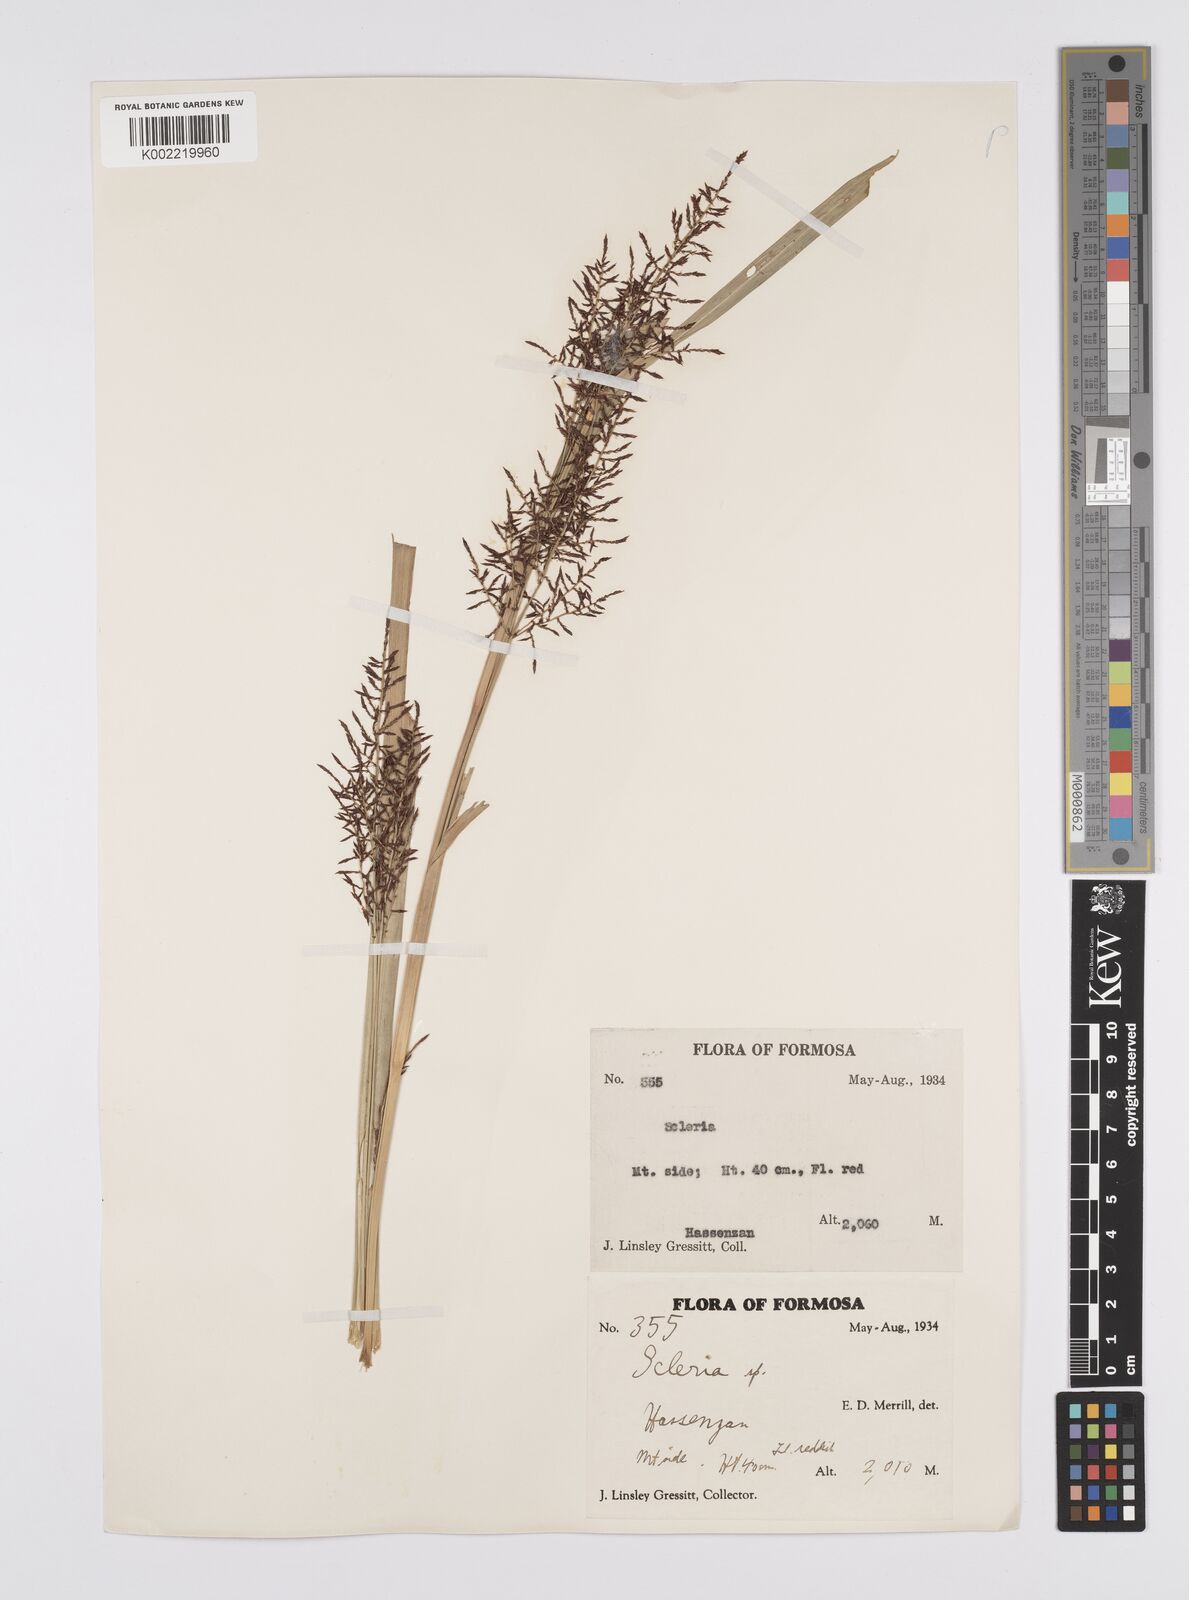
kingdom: Plantae
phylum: Tracheophyta
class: Liliopsida
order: Poales
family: Cyperaceae
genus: Carex
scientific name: Carex filicina
